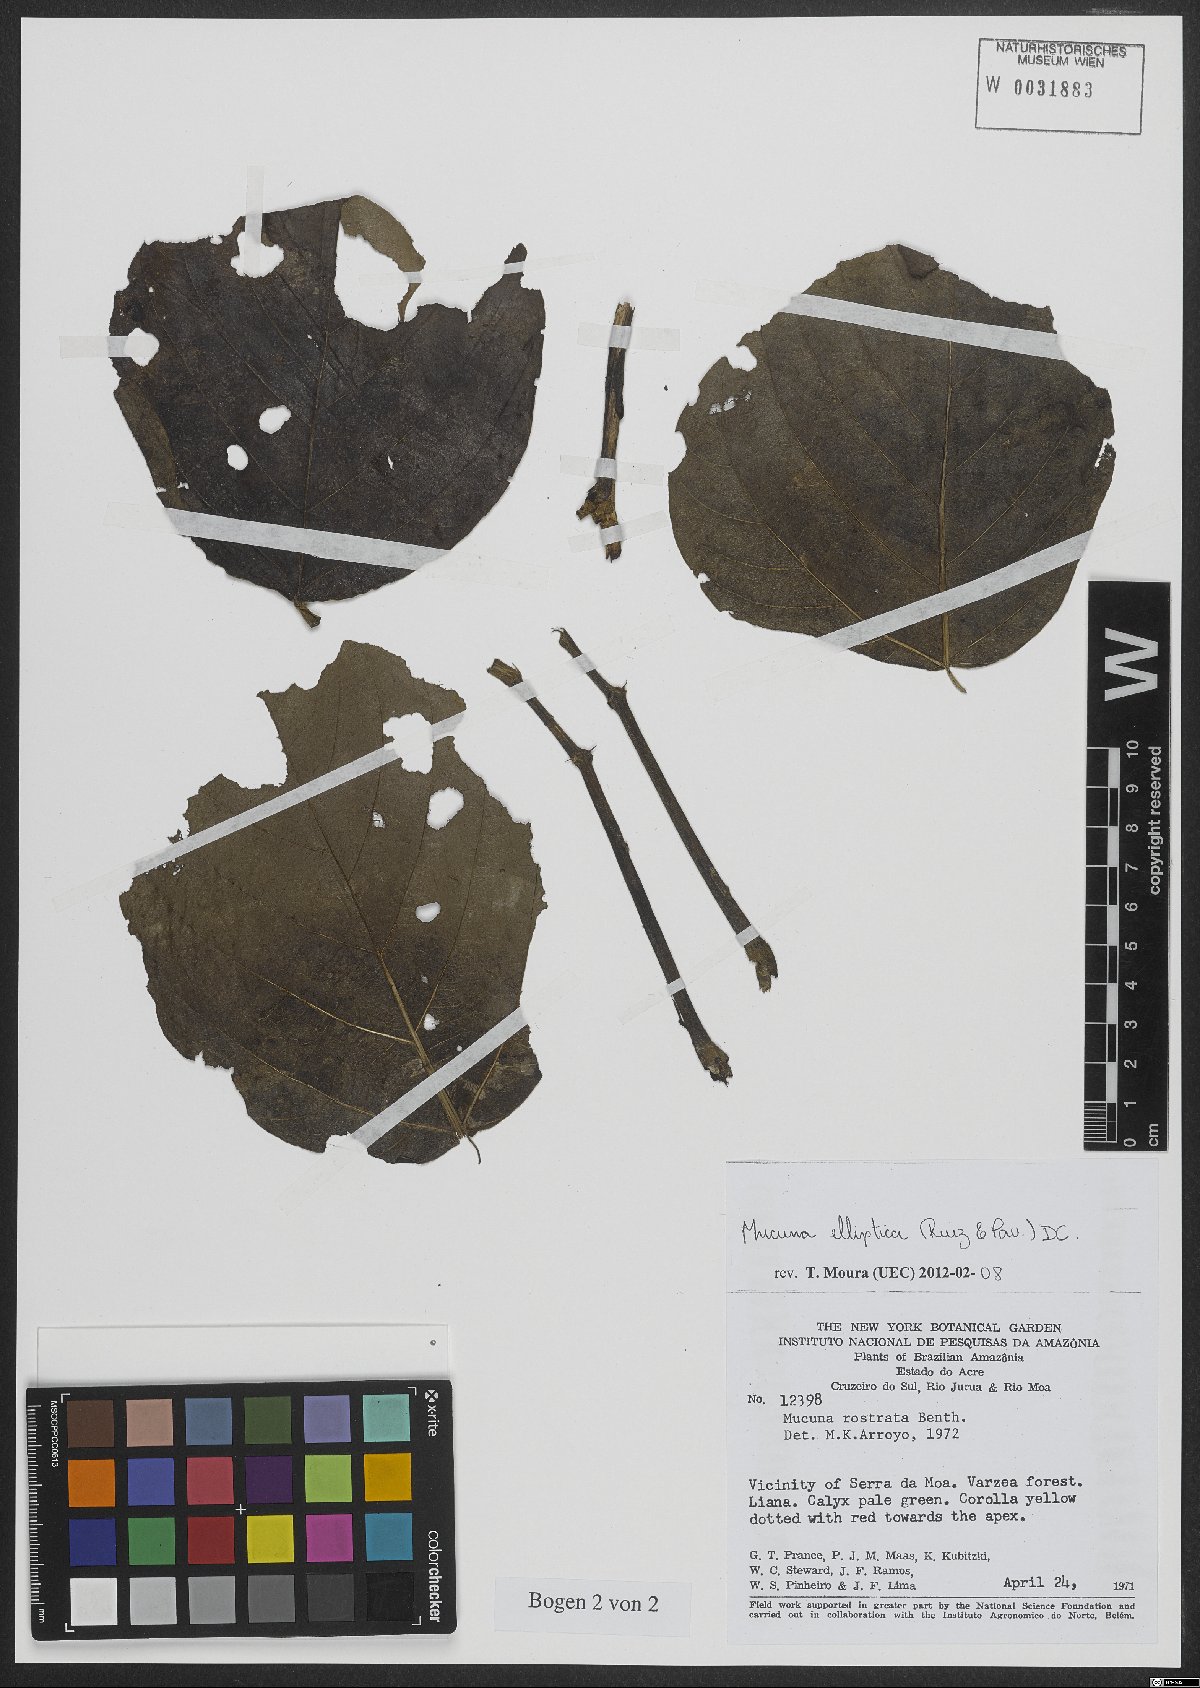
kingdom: Plantae
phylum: Tracheophyta
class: Magnoliopsida
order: Fabales
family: Fabaceae
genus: Mucuna
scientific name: Mucuna elliptica
